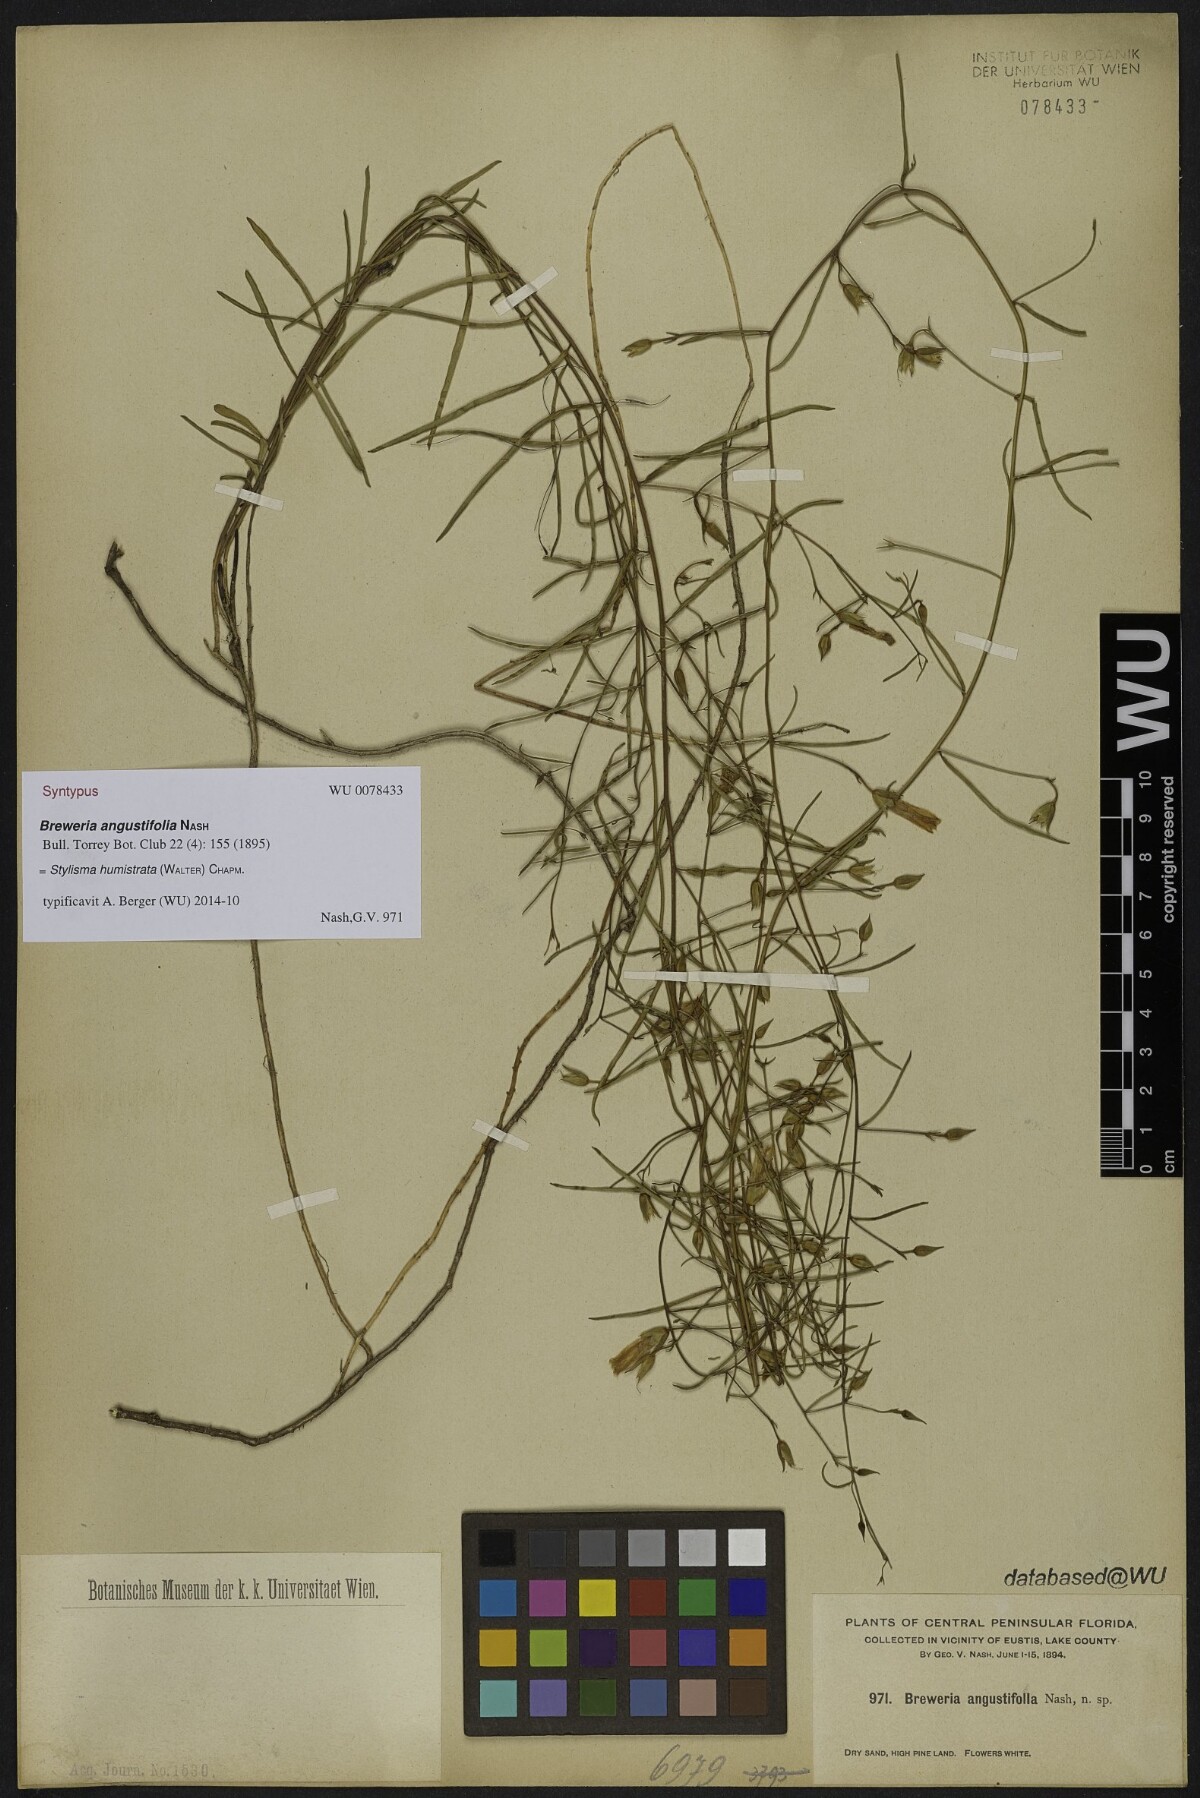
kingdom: Plantae
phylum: Tracheophyta
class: Magnoliopsida
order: Solanales
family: Convolvulaceae
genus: Stylisma
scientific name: Stylisma patens
